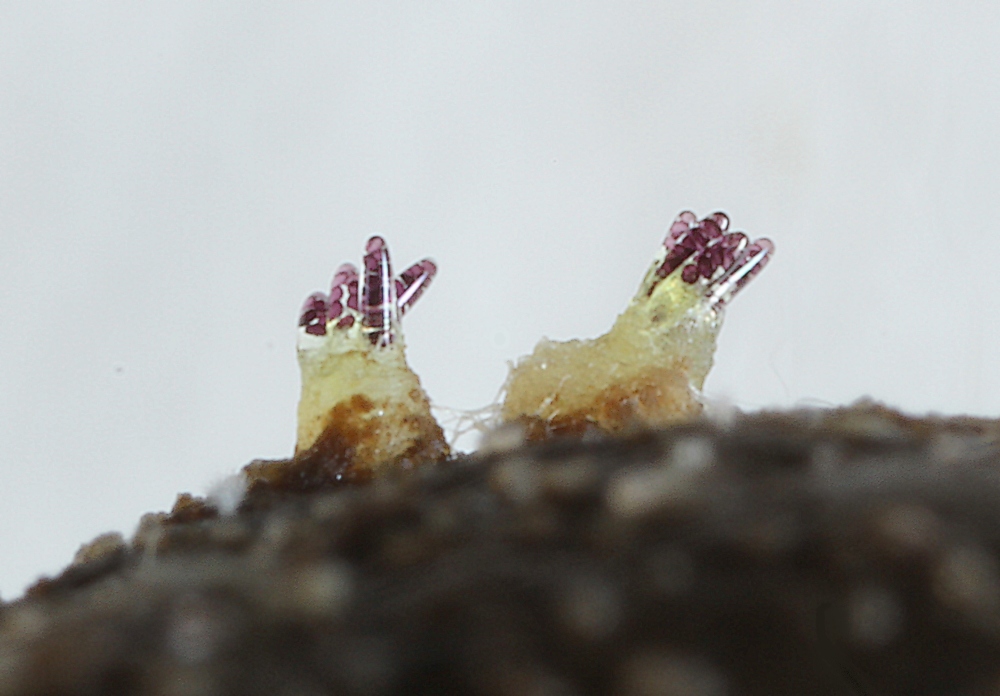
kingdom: Fungi
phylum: Ascomycota
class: Pezizomycetes
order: Pezizales
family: Ascobolaceae
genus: Ascobolus
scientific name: Ascobolus immersus
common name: storsporet prikbæger
